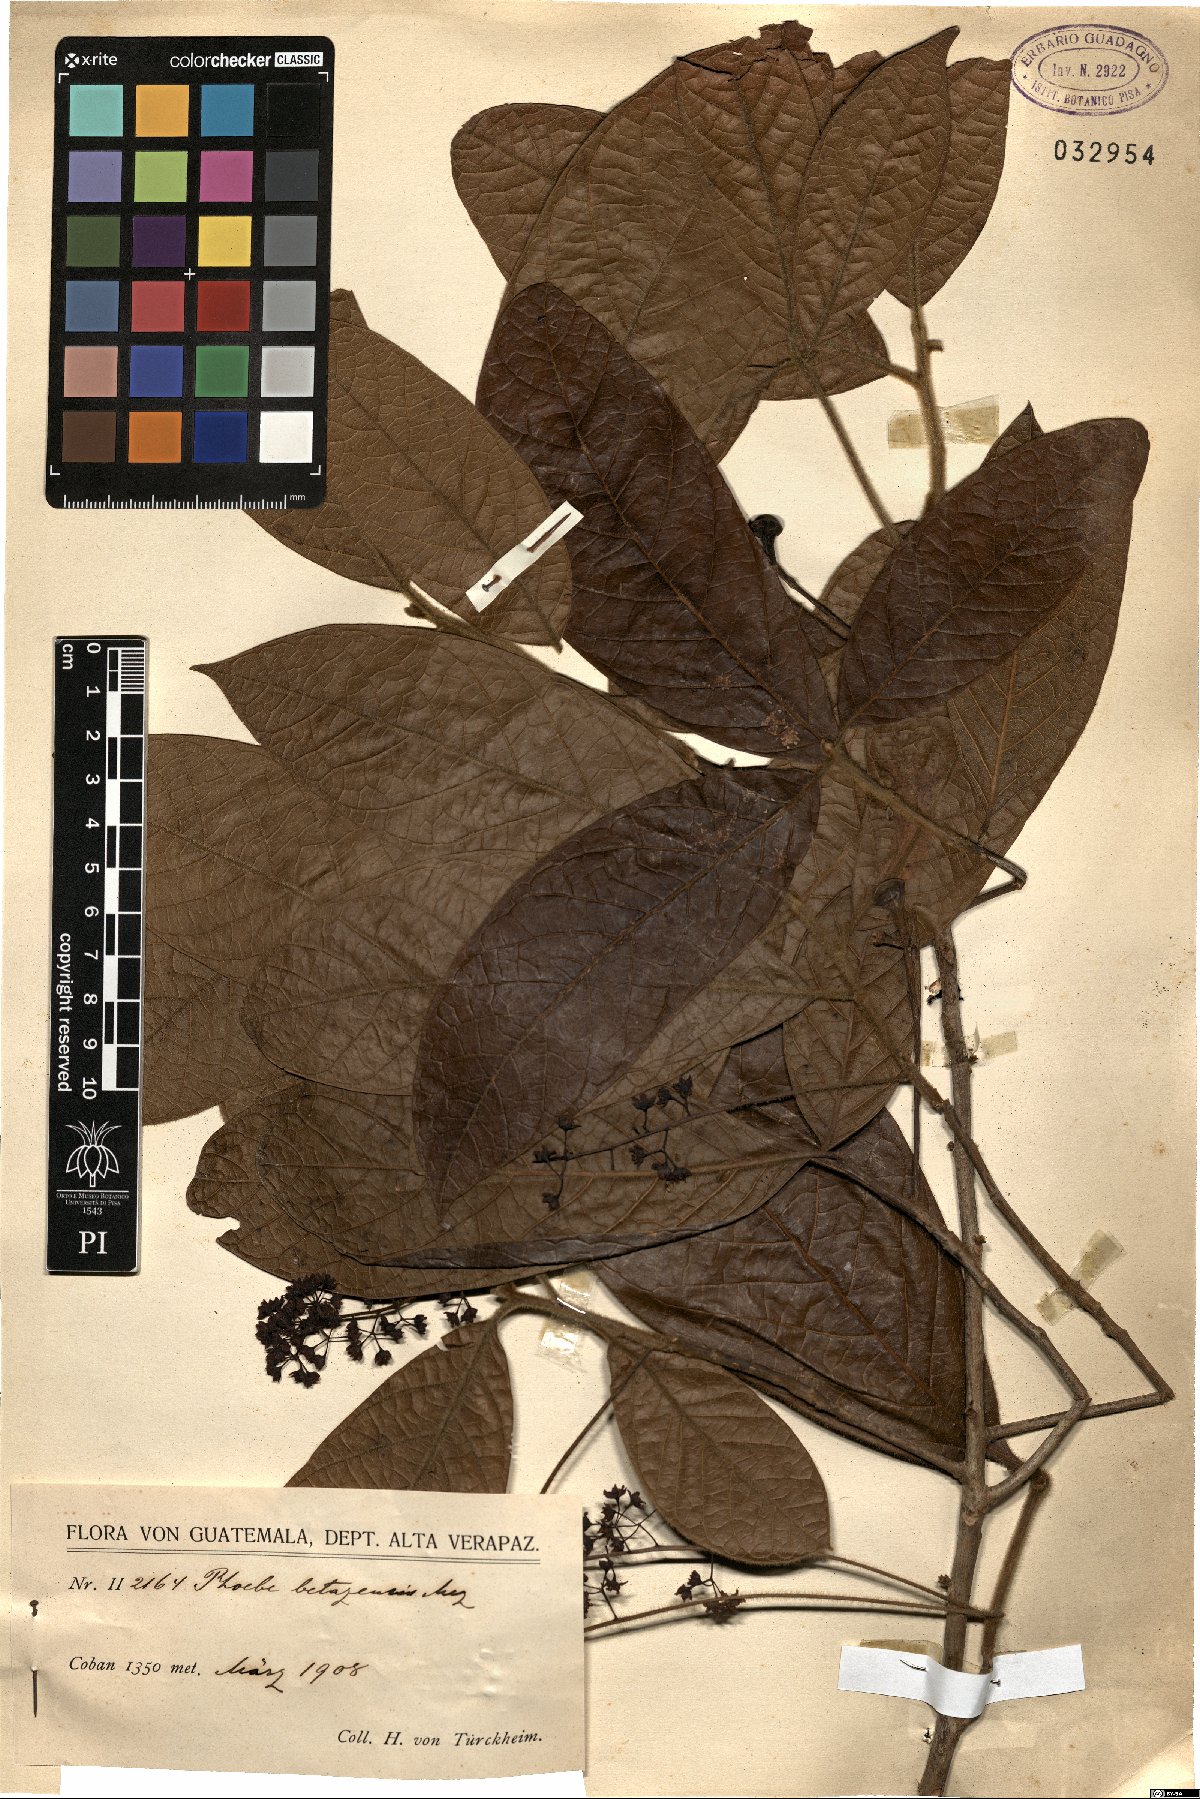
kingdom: Plantae
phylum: Tracheophyta
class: Magnoliopsida
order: Laurales
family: Lauraceae
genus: Aiouea
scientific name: Aiouea pachypoda
